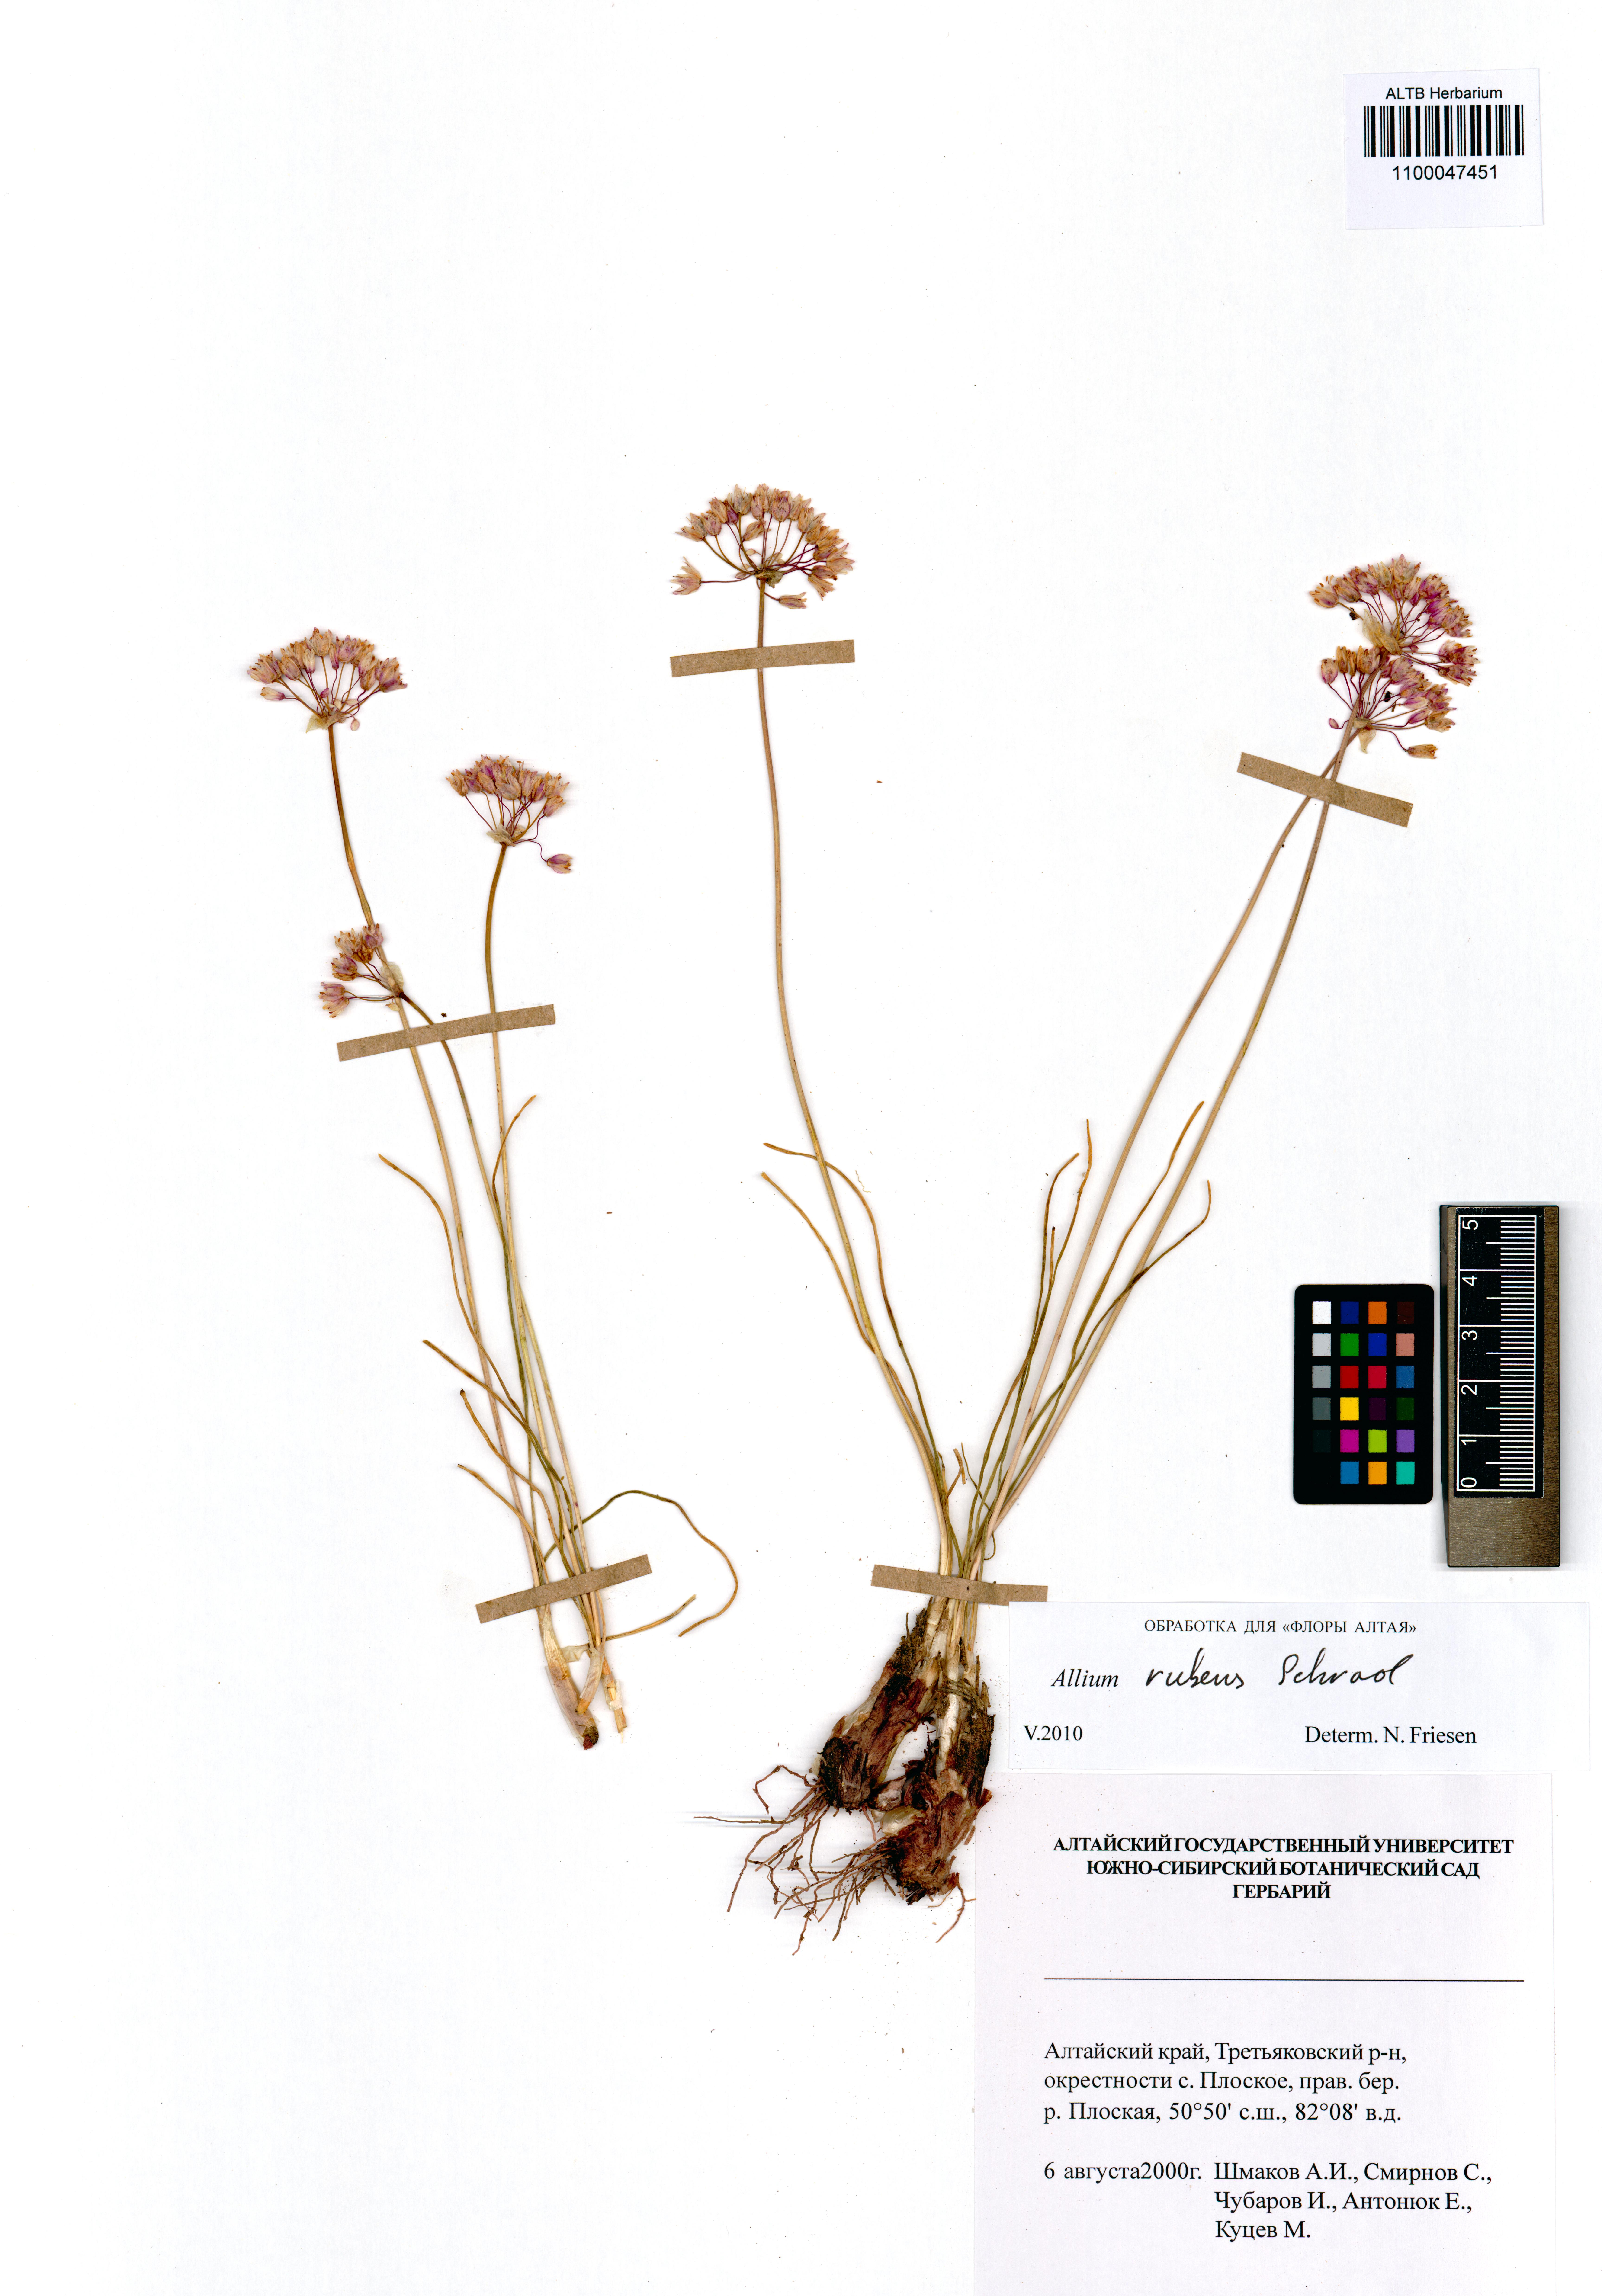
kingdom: Plantae
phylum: Tracheophyta
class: Liliopsida
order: Asparagales
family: Amaryllidaceae
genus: Allium
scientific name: Allium rubens
